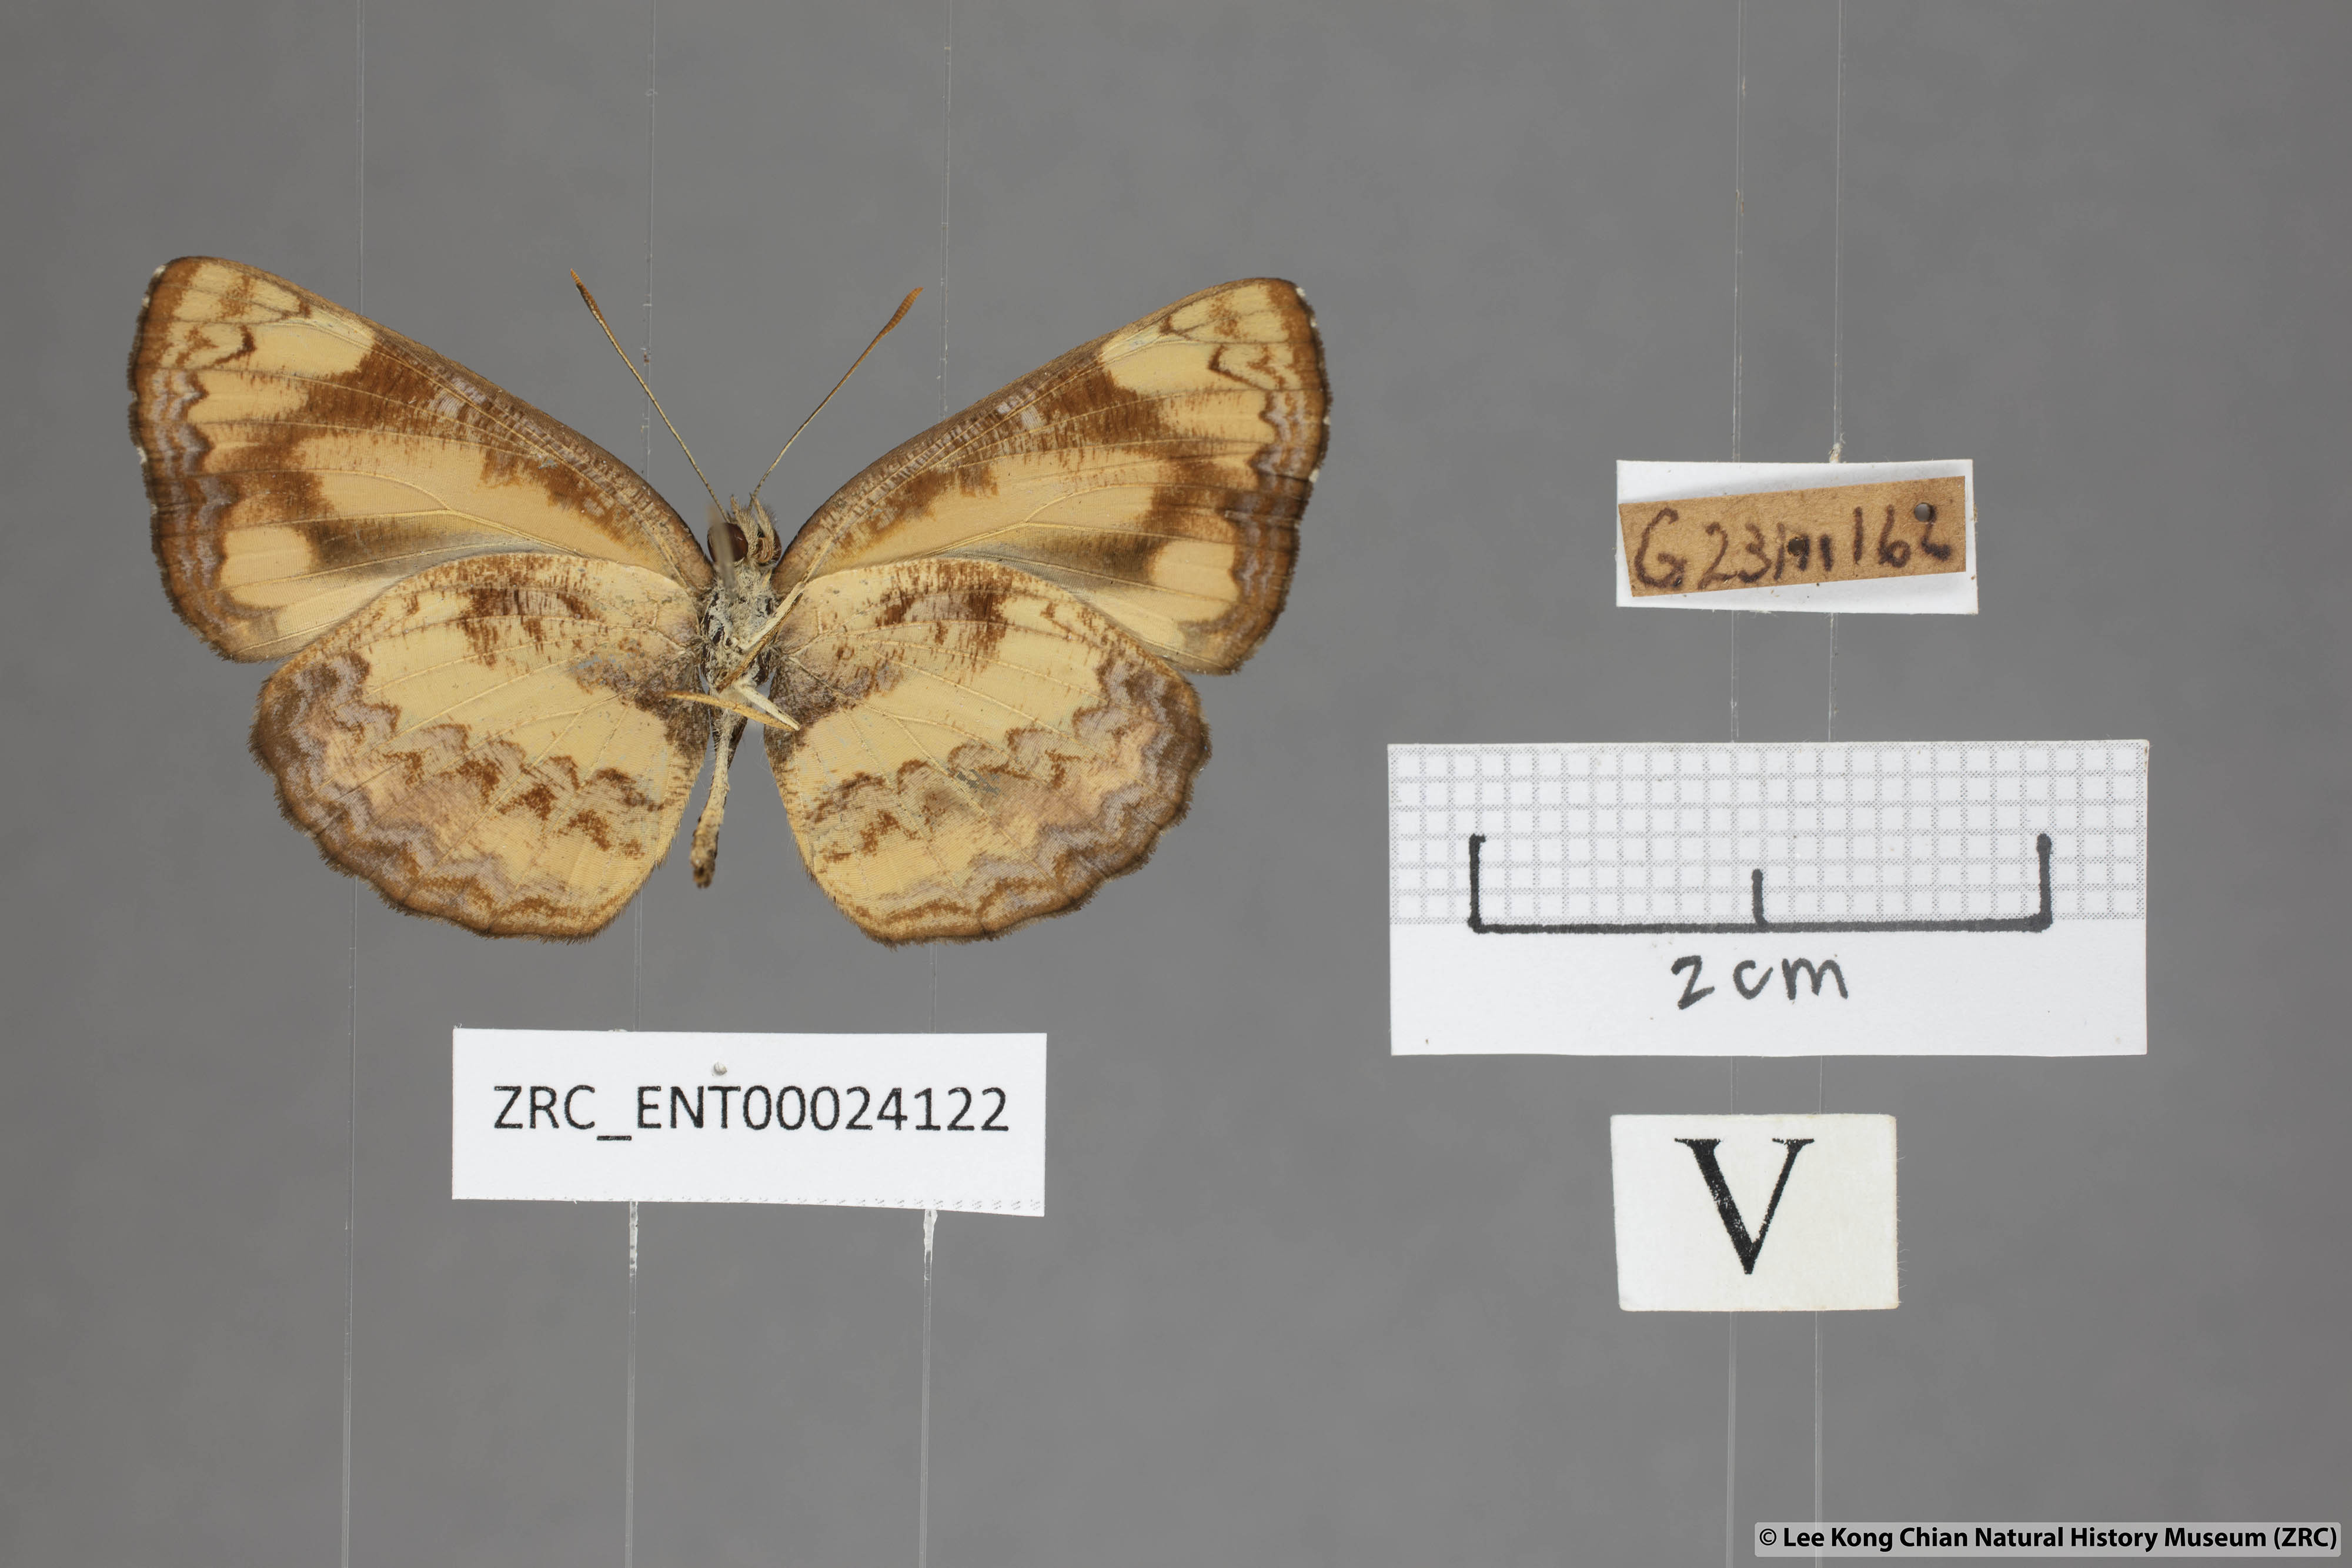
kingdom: Animalia
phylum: Arthropoda
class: Insecta
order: Lepidoptera
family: Nymphalidae
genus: Pantoporia
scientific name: Pantoporia hordonia
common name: Common lascar
